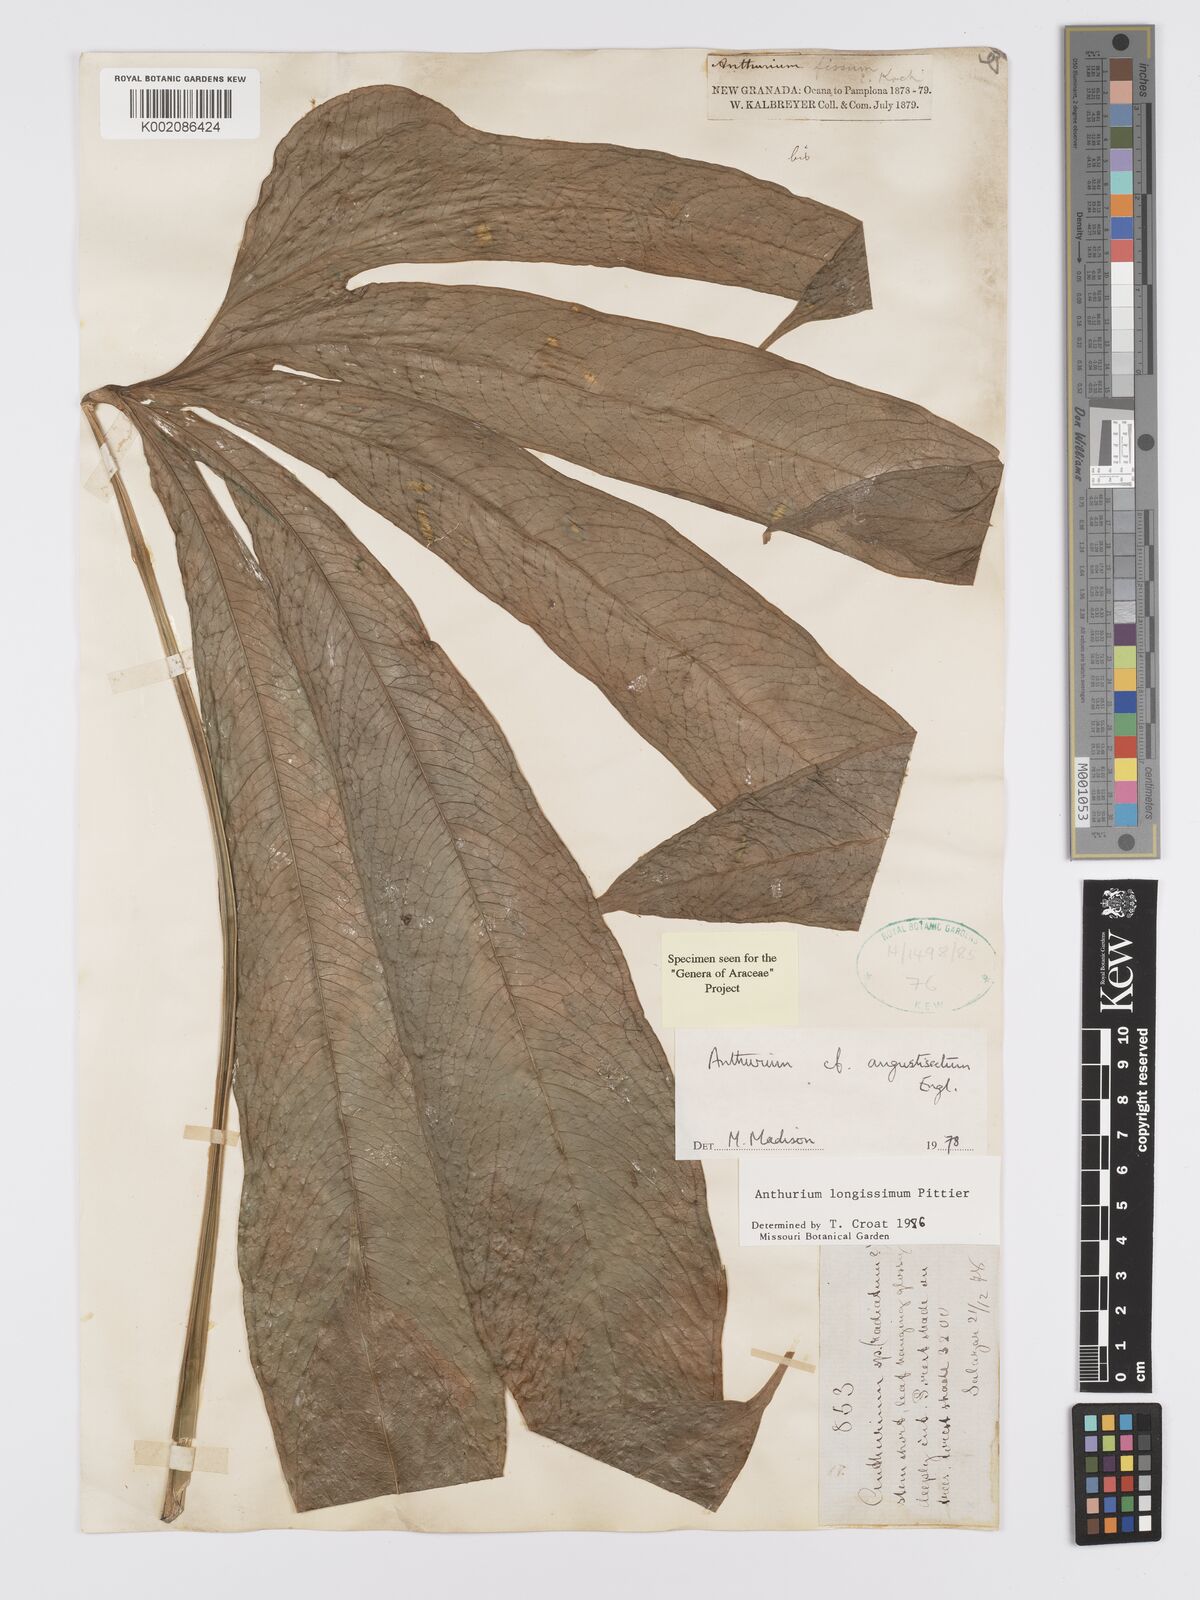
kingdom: Plantae
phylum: Tracheophyta
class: Liliopsida
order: Alismatales
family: Araceae
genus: Anthurium
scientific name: Anthurium longissimum
